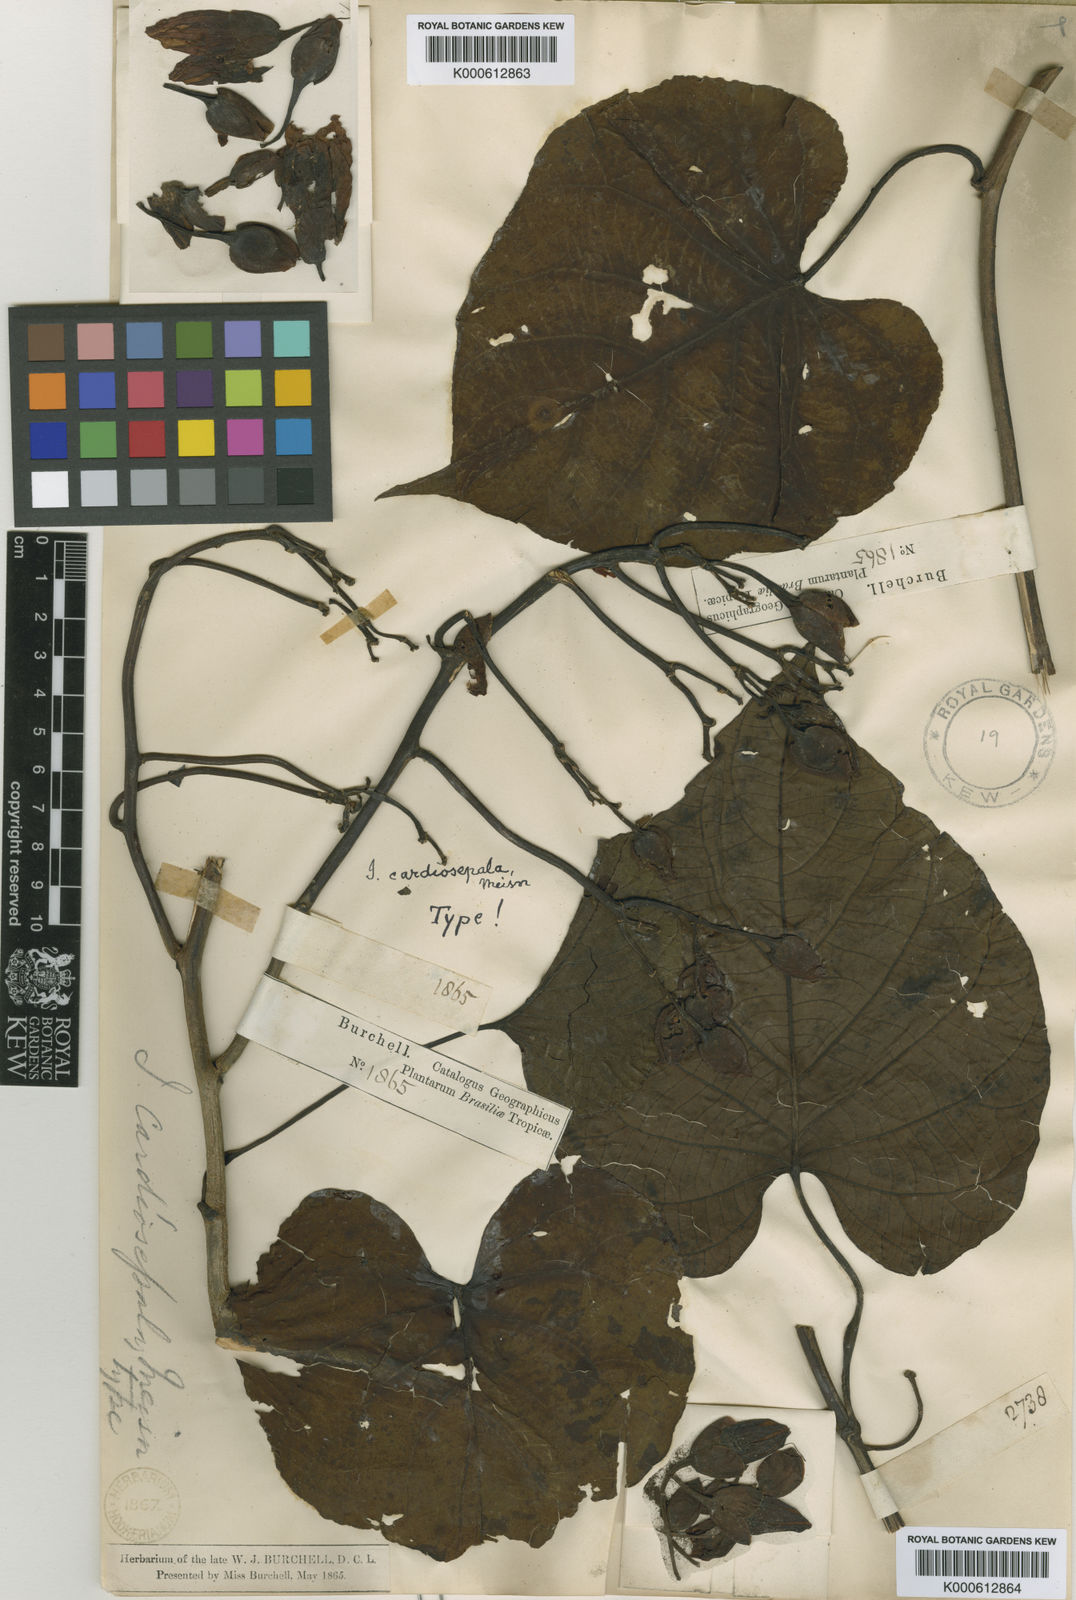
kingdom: Plantae
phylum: Tracheophyta
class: Magnoliopsida
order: Solanales
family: Convolvulaceae
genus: Ipomoea
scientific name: Ipomoea philomega
